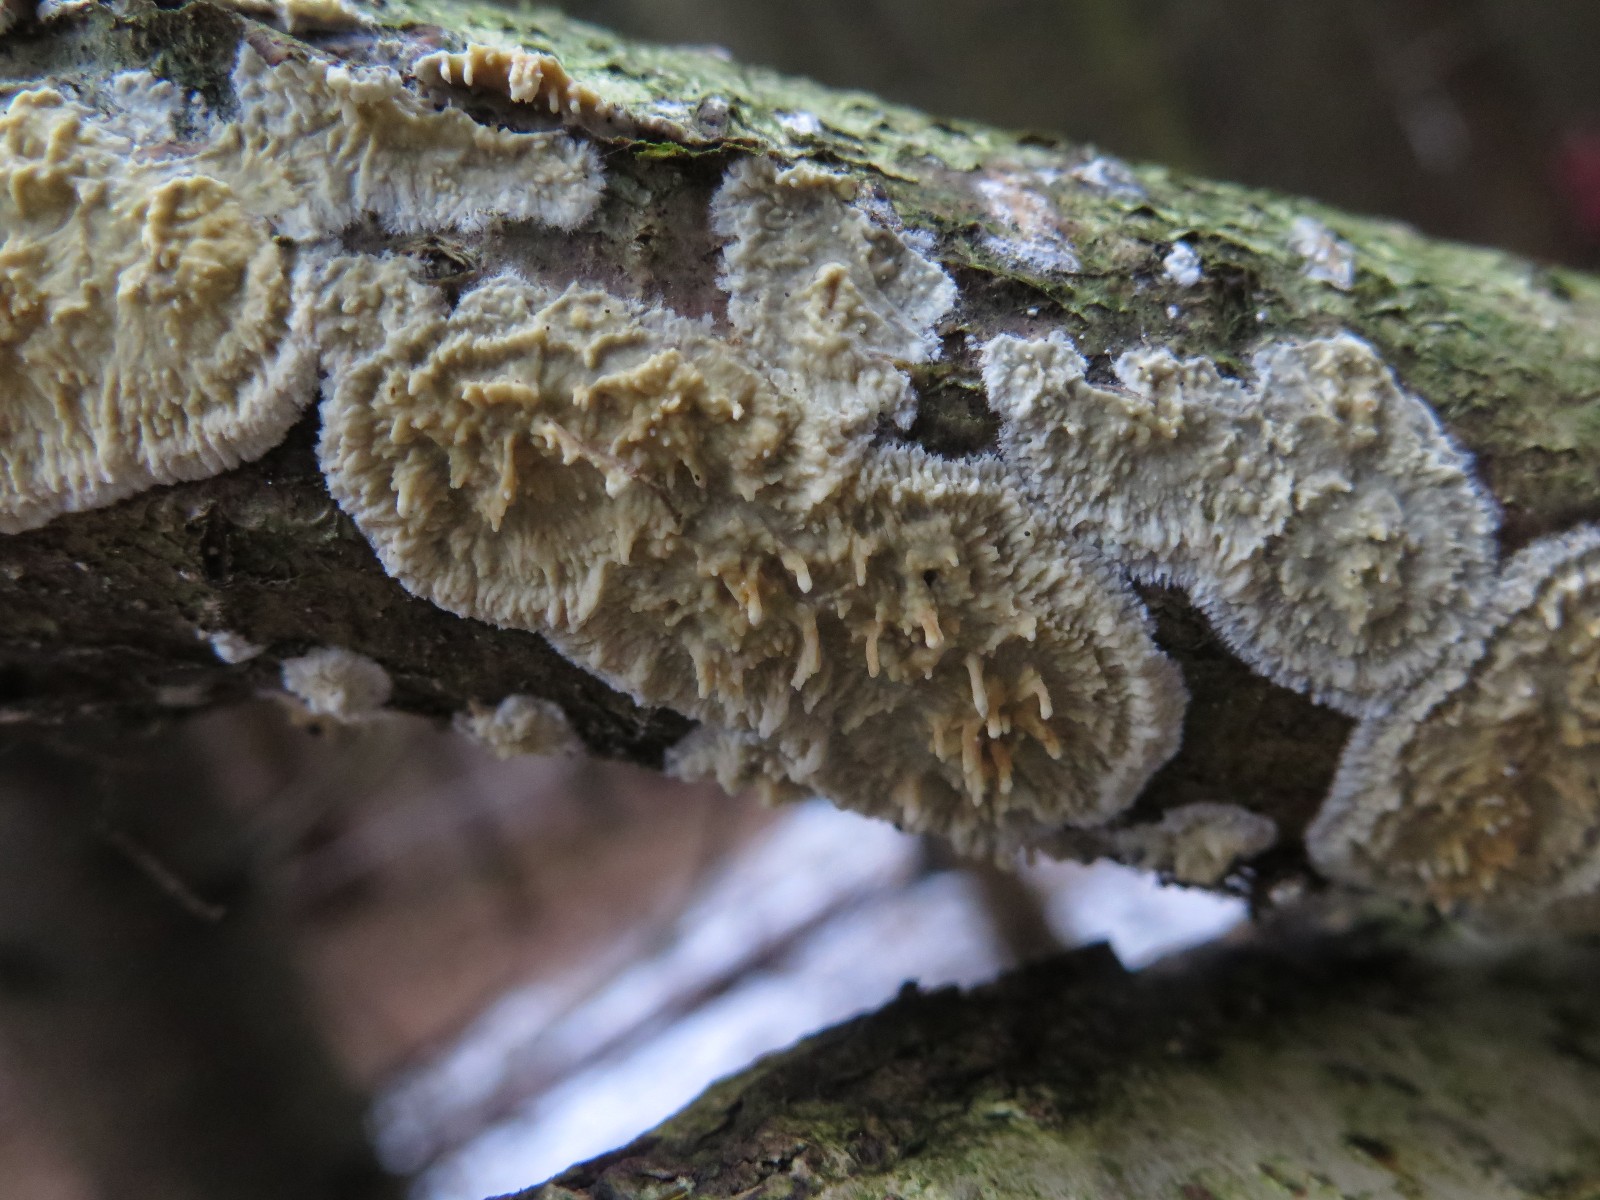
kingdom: Fungi
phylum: Basidiomycota
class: Agaricomycetes
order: Hymenochaetales
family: Schizoporaceae
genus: Xylodon
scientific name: Xylodon radula
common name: grovtandet kalkskind
